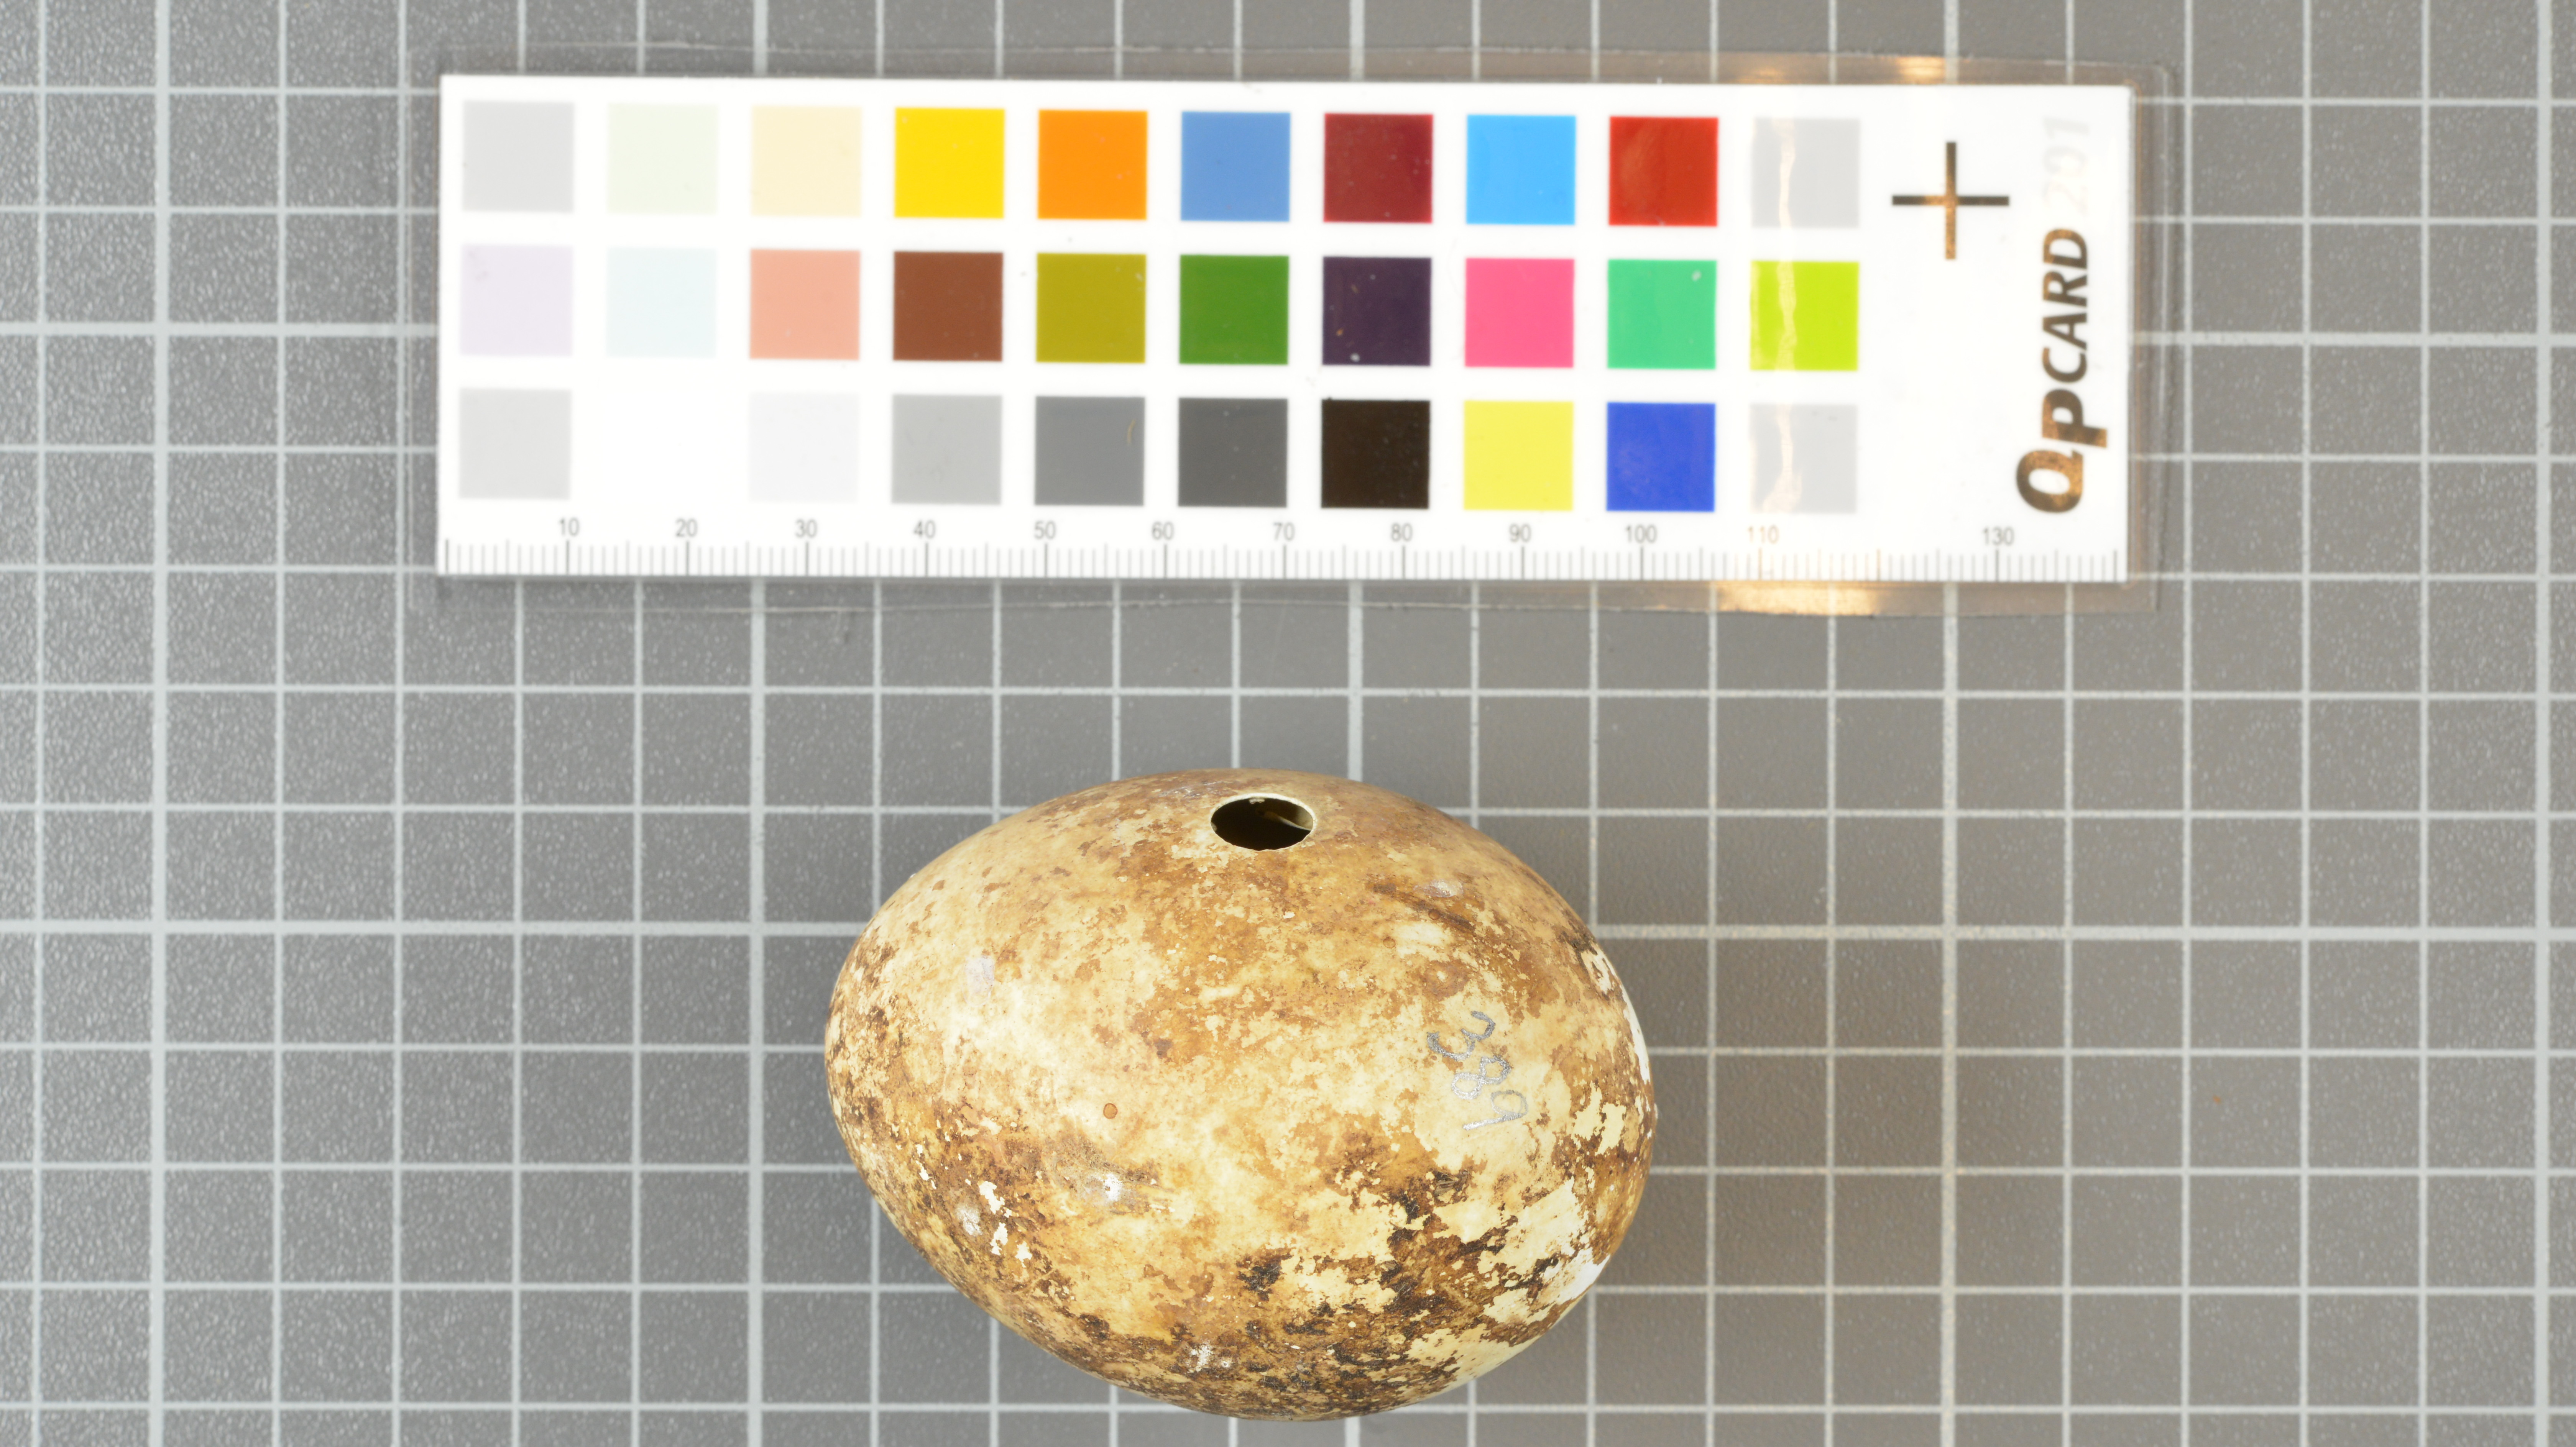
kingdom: Animalia
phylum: Chordata
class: Aves
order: Sphenisciformes
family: Spheniscidae
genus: Eudyptes
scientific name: Eudyptes moseleyi
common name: Northern rockhopper penguin
